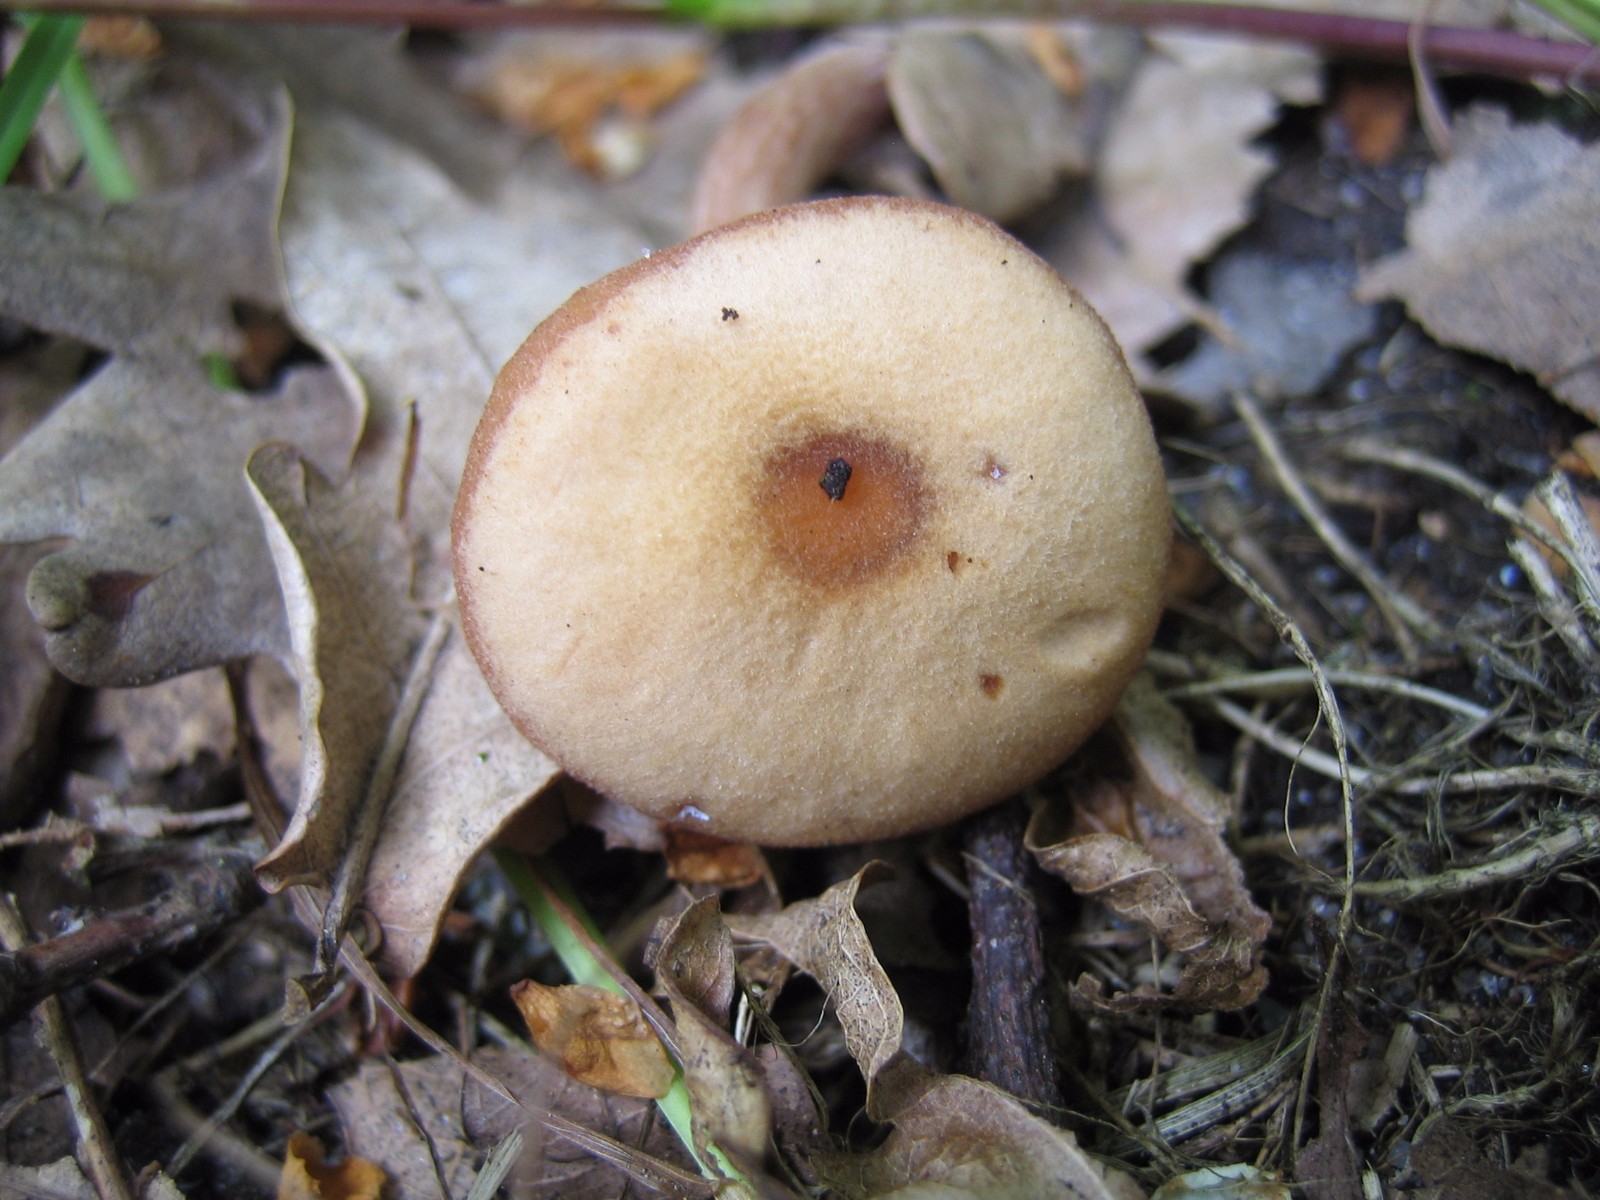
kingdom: Fungi
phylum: Basidiomycota
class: Agaricomycetes
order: Agaricales
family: Hydnangiaceae
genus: Laccaria
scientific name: Laccaria laccata
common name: rød ametysthat
